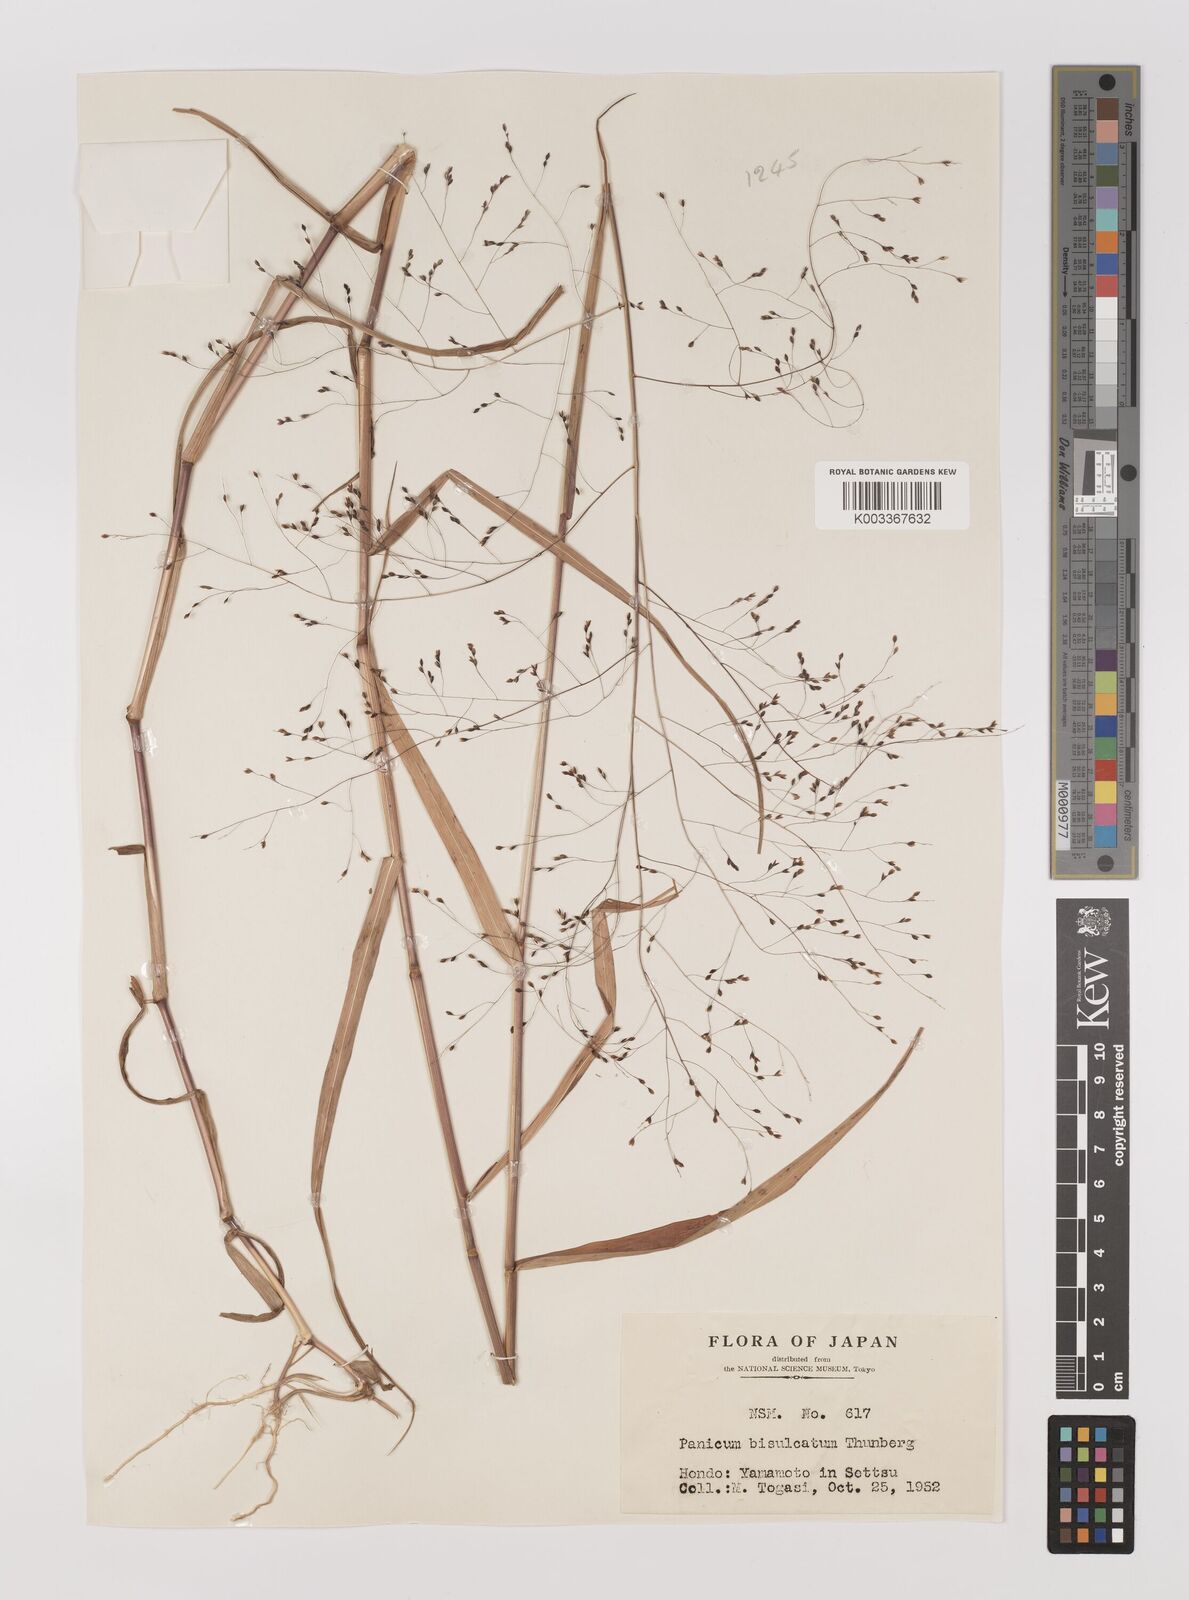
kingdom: Plantae
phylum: Tracheophyta
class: Liliopsida
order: Poales
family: Poaceae
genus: Panicum
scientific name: Panicum bisulcatum
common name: Japanese panicgrass
